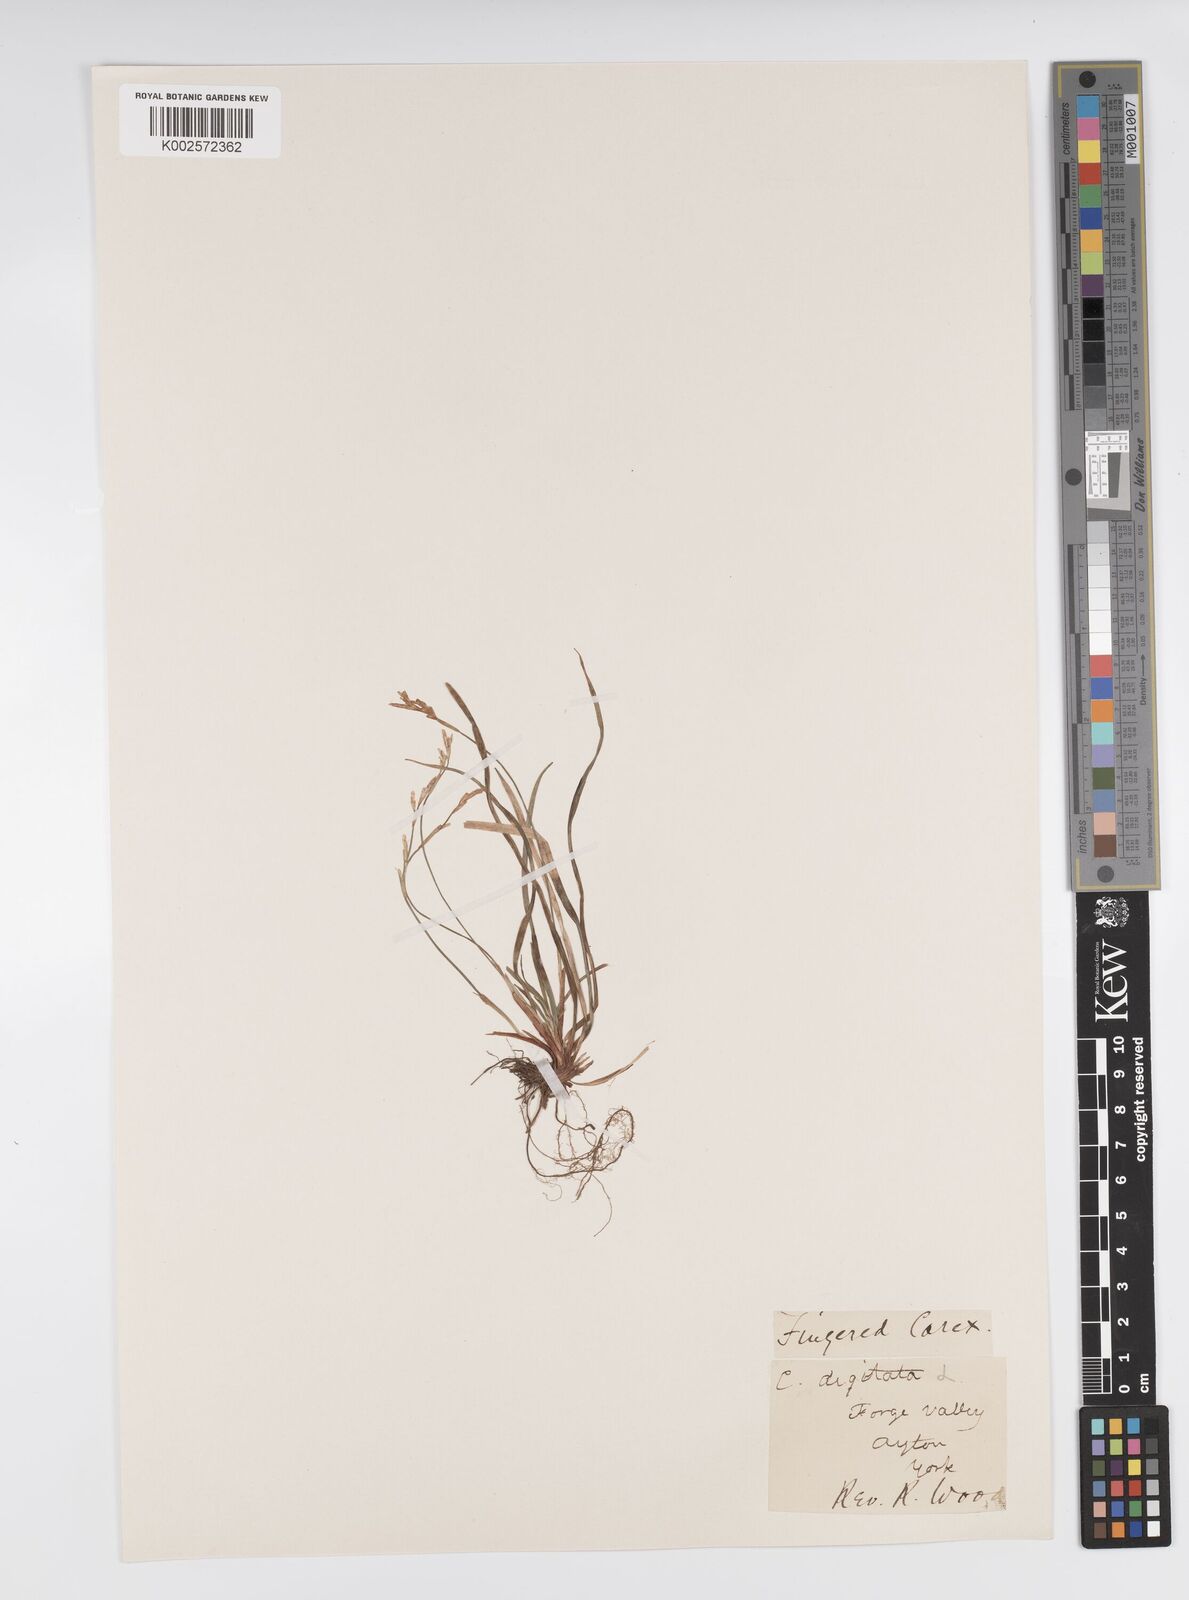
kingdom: Plantae
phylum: Tracheophyta
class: Liliopsida
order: Poales
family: Cyperaceae
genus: Carex
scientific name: Carex digitata
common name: Fingered sedge
